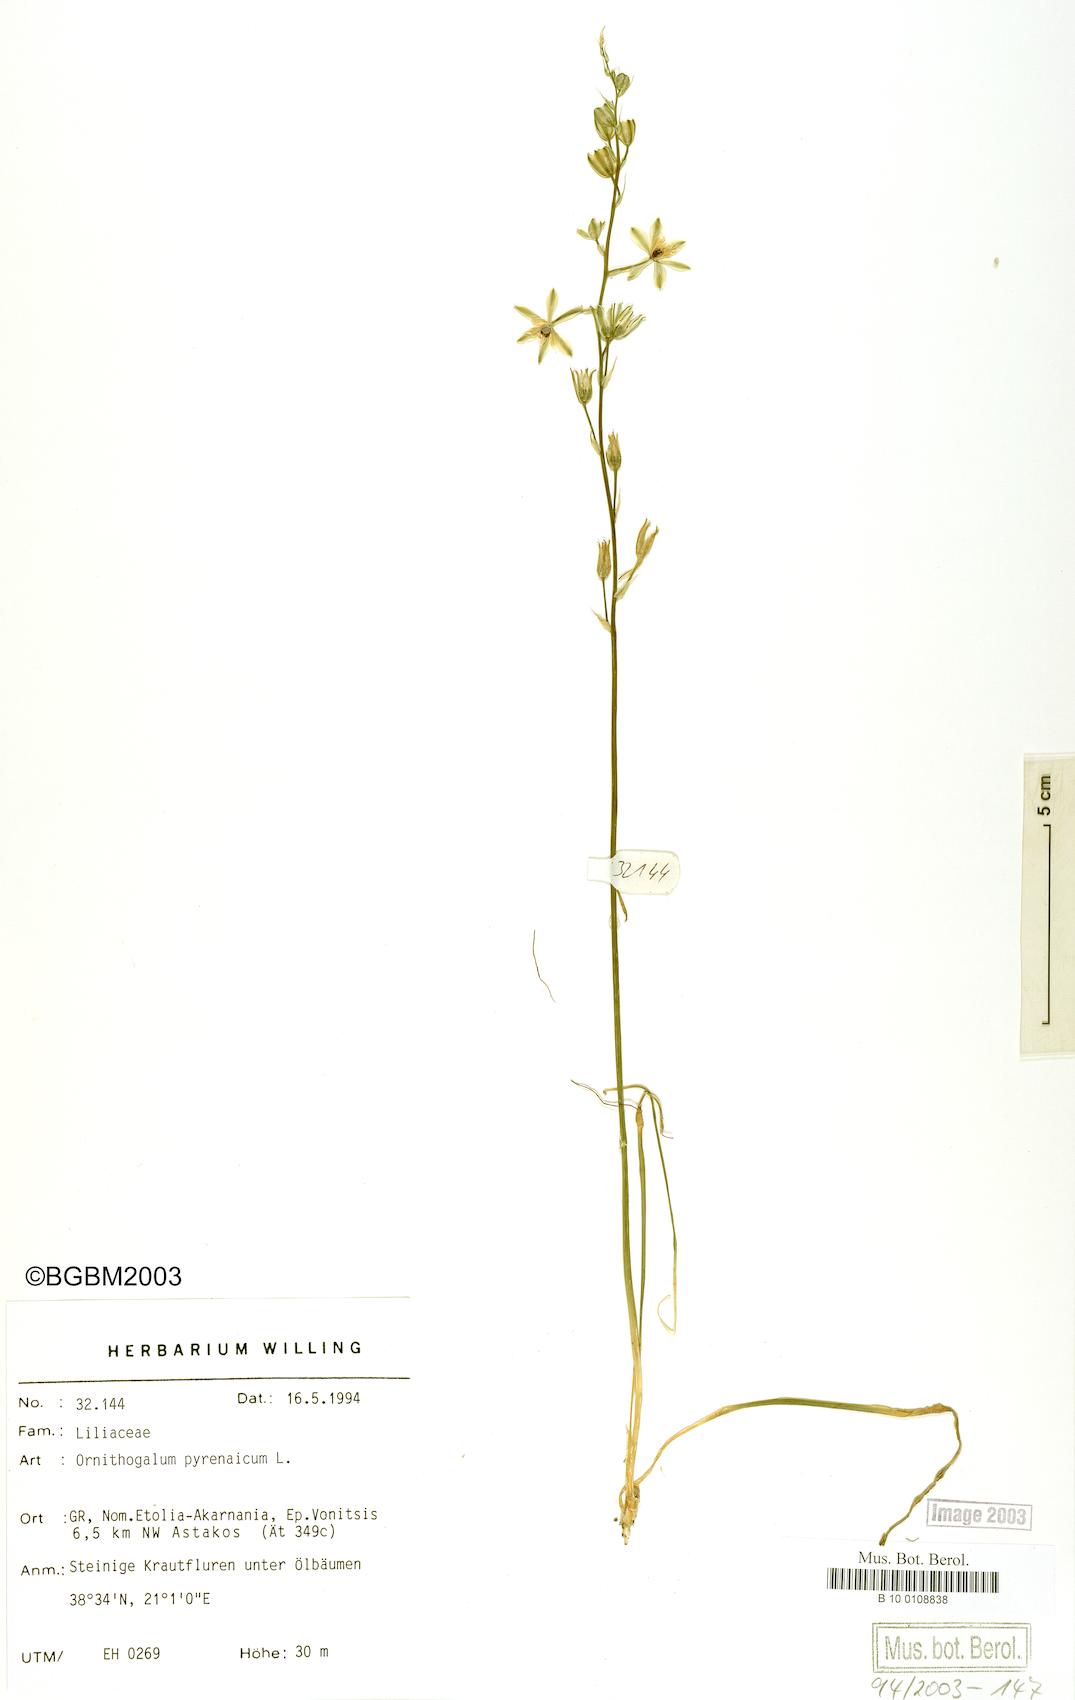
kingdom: Plantae
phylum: Tracheophyta
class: Liliopsida
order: Asparagales
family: Asparagaceae
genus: Ornithogalum
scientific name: Ornithogalum pyrenaicum
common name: Spiked star-of-bethlehem
